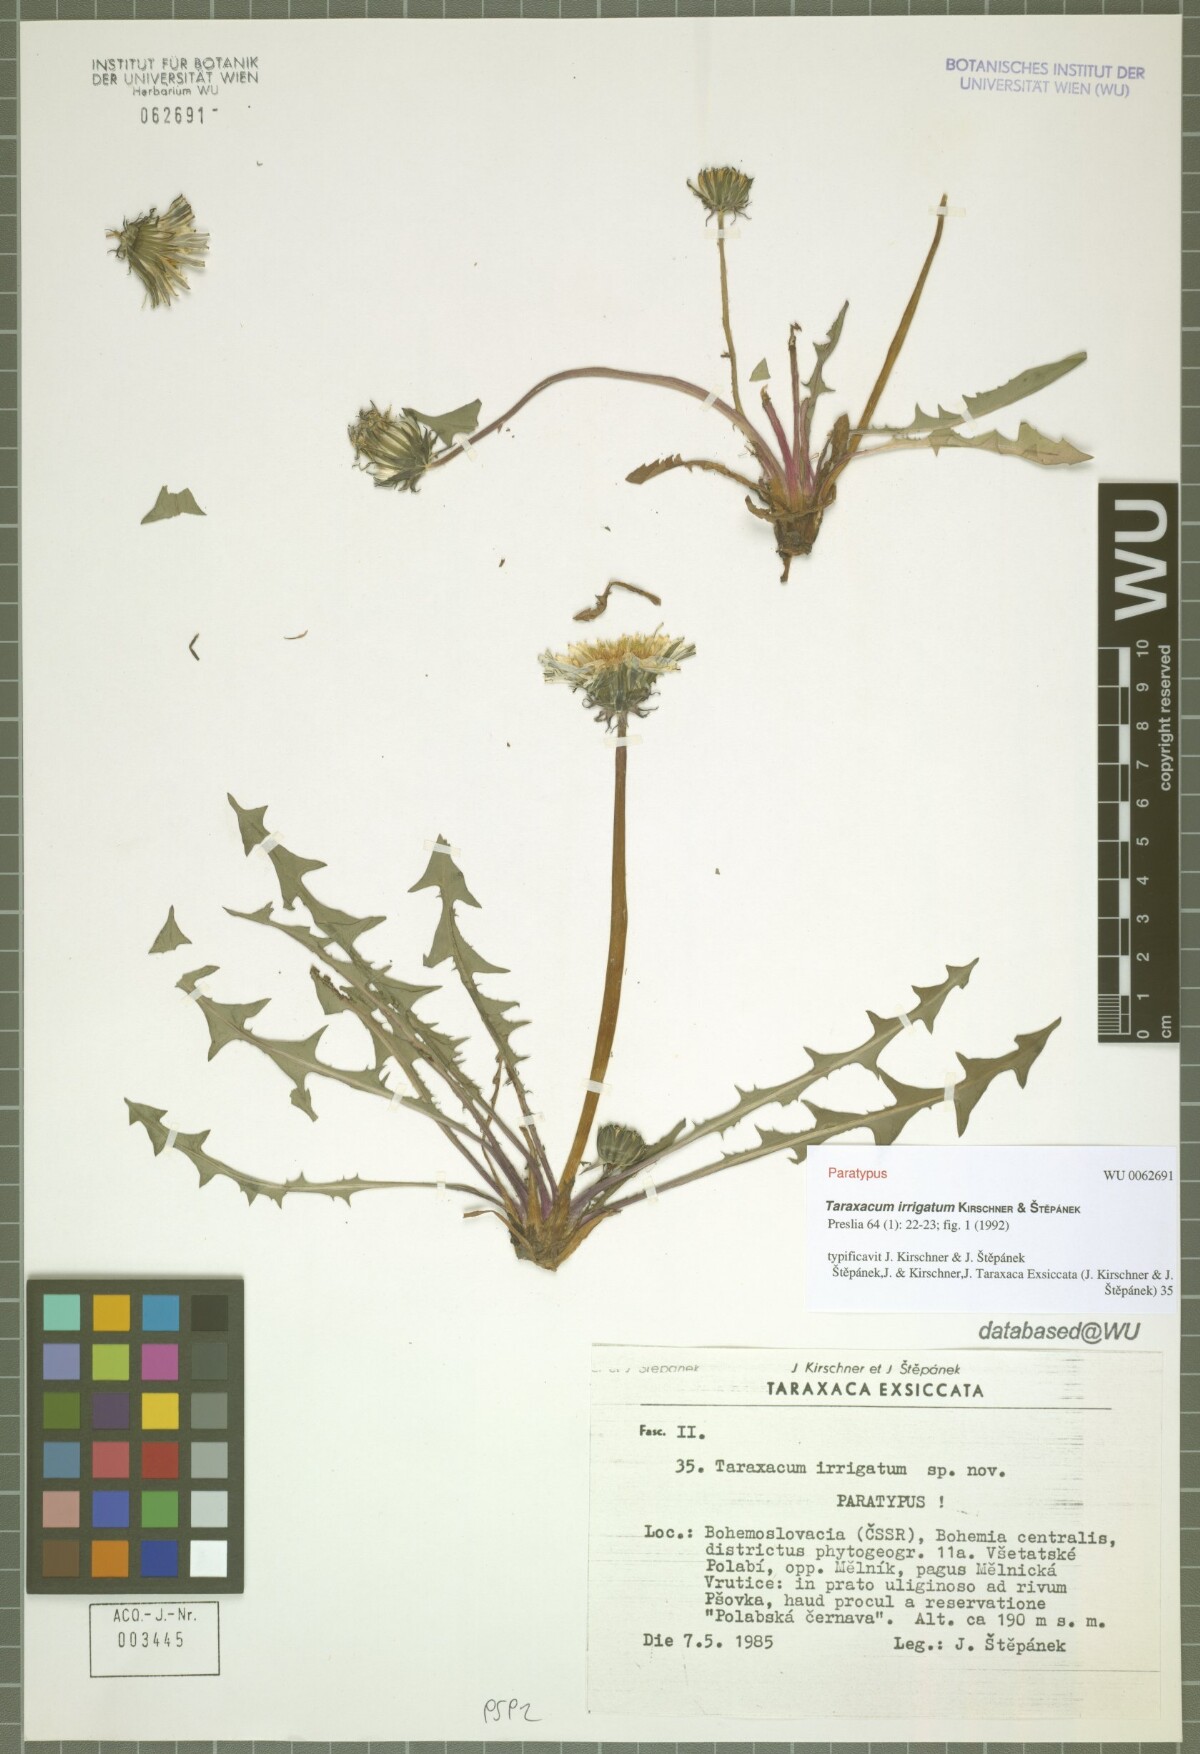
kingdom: Plantae
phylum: Tracheophyta
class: Magnoliopsida
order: Asterales
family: Asteraceae
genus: Taraxacum
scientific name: Taraxacum pseudopalustre
